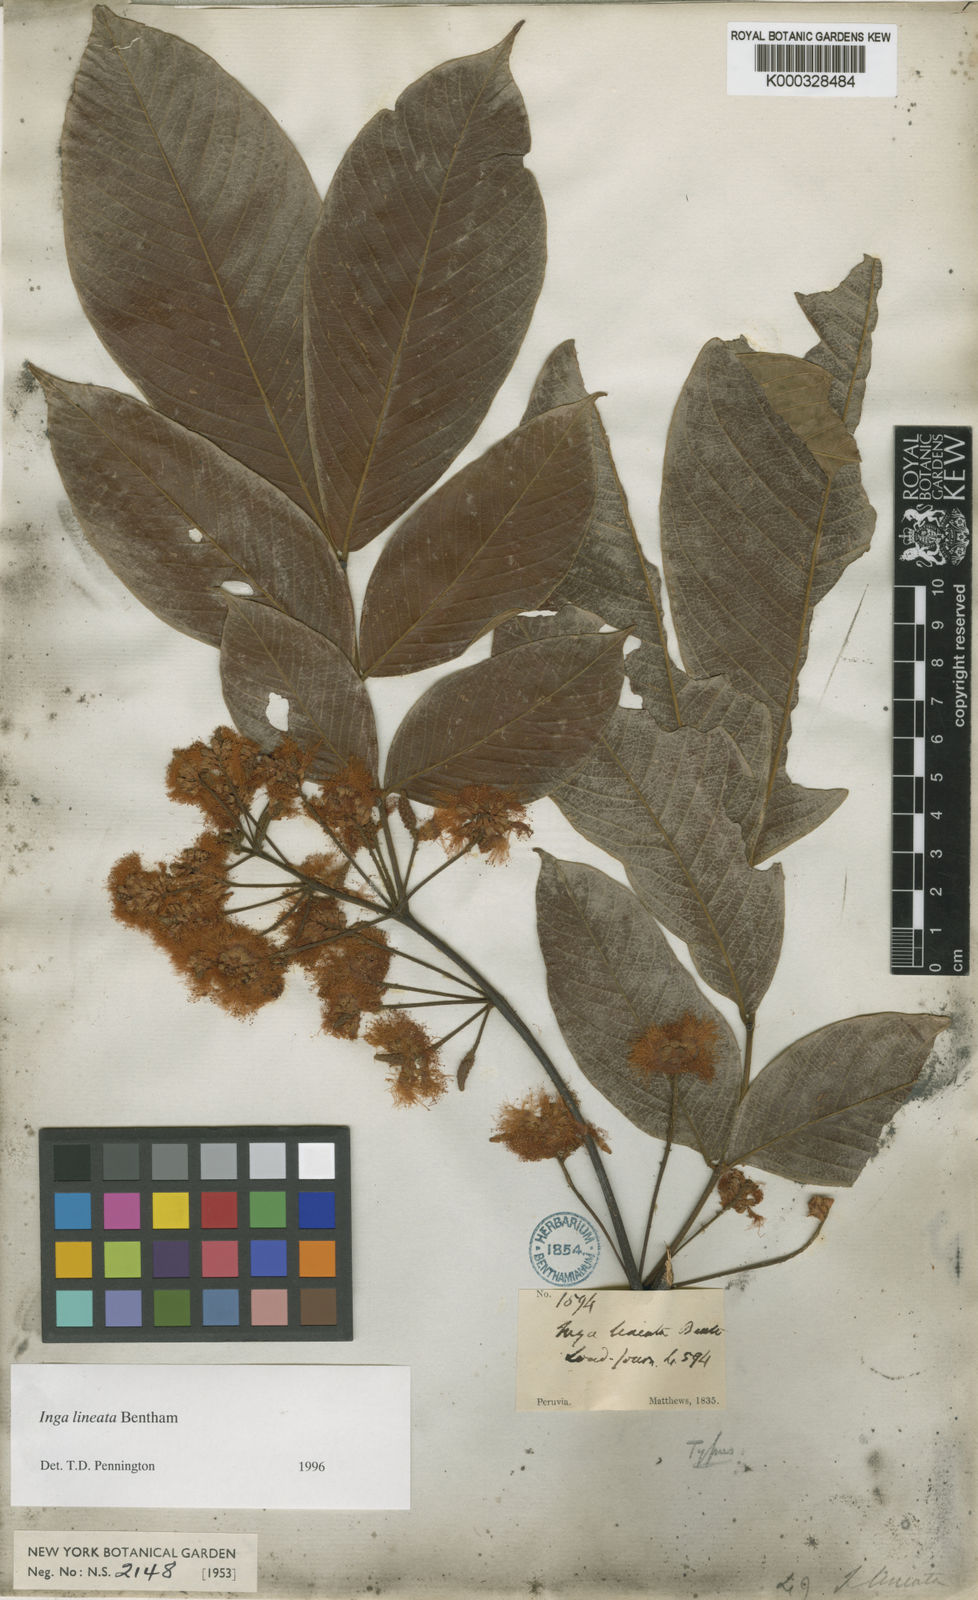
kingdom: Plantae
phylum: Tracheophyta
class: Magnoliopsida
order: Fabales
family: Fabaceae
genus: Inga
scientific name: Inga lineata
